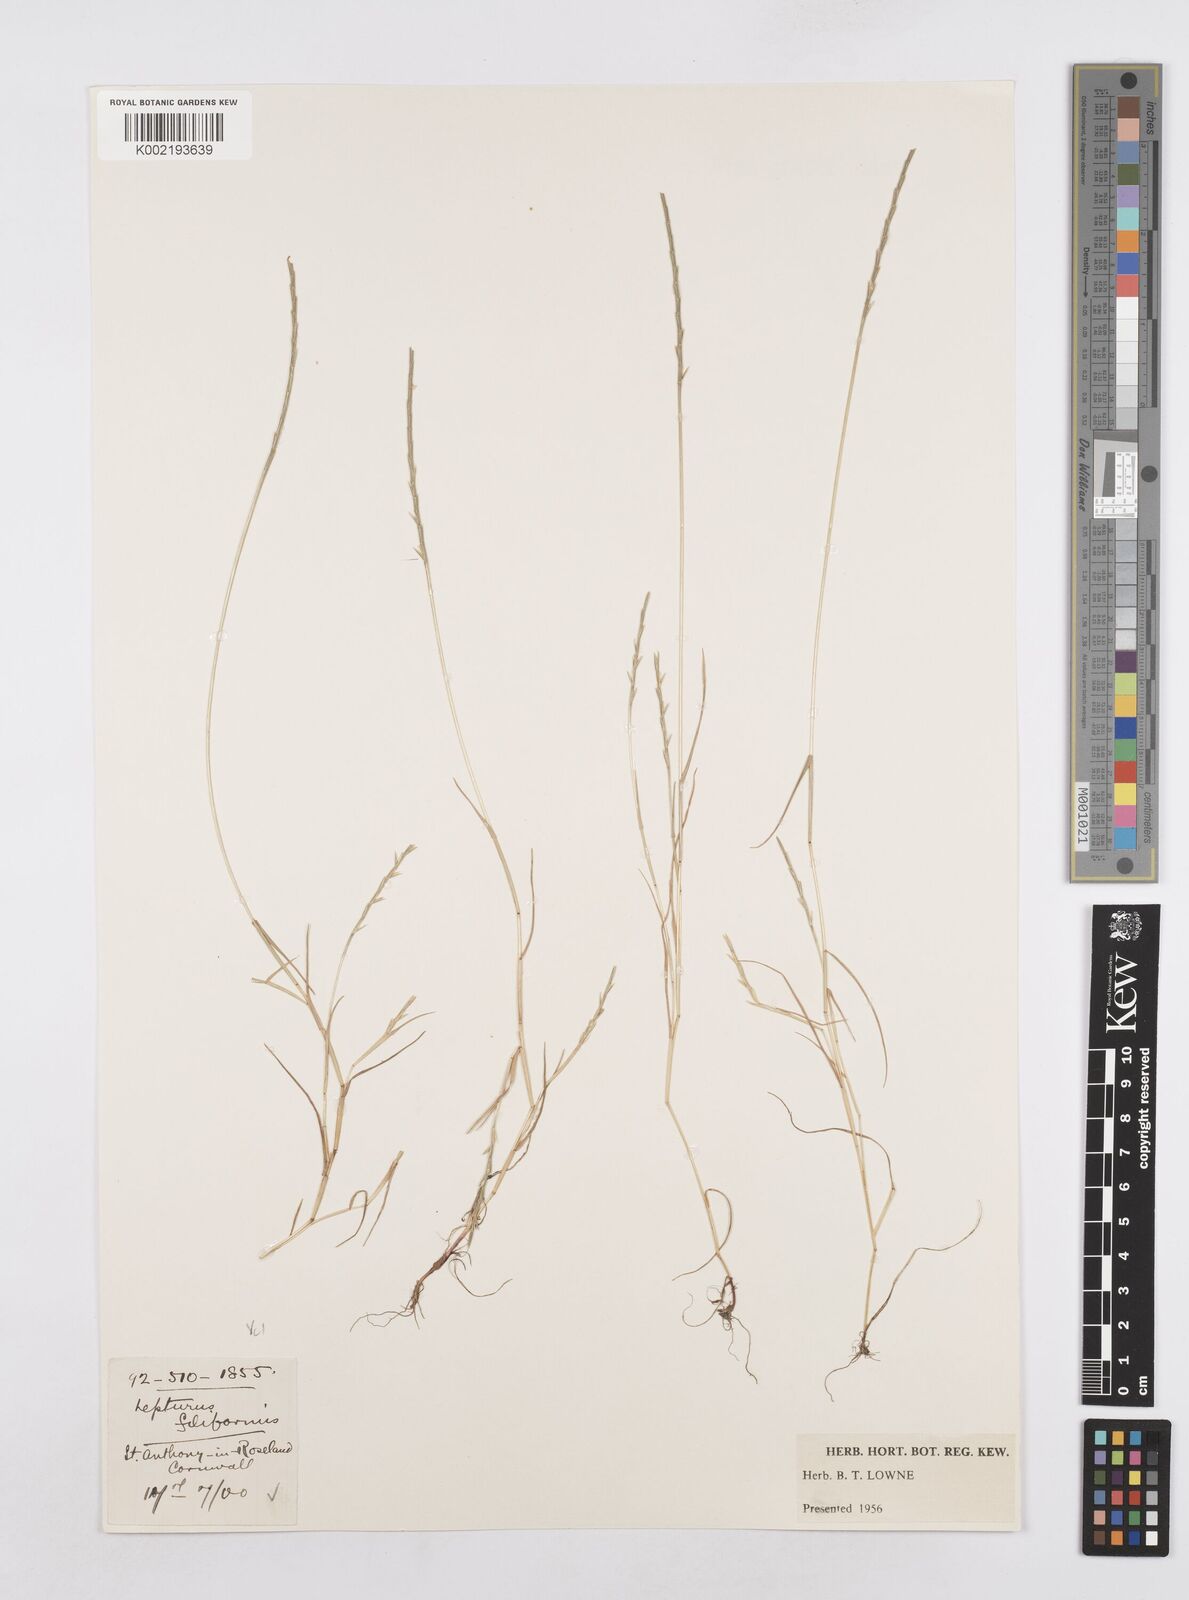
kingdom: Plantae
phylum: Tracheophyta
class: Liliopsida
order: Poales
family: Poaceae
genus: Parapholis
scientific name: Parapholis strigosa
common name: Hard-grass
